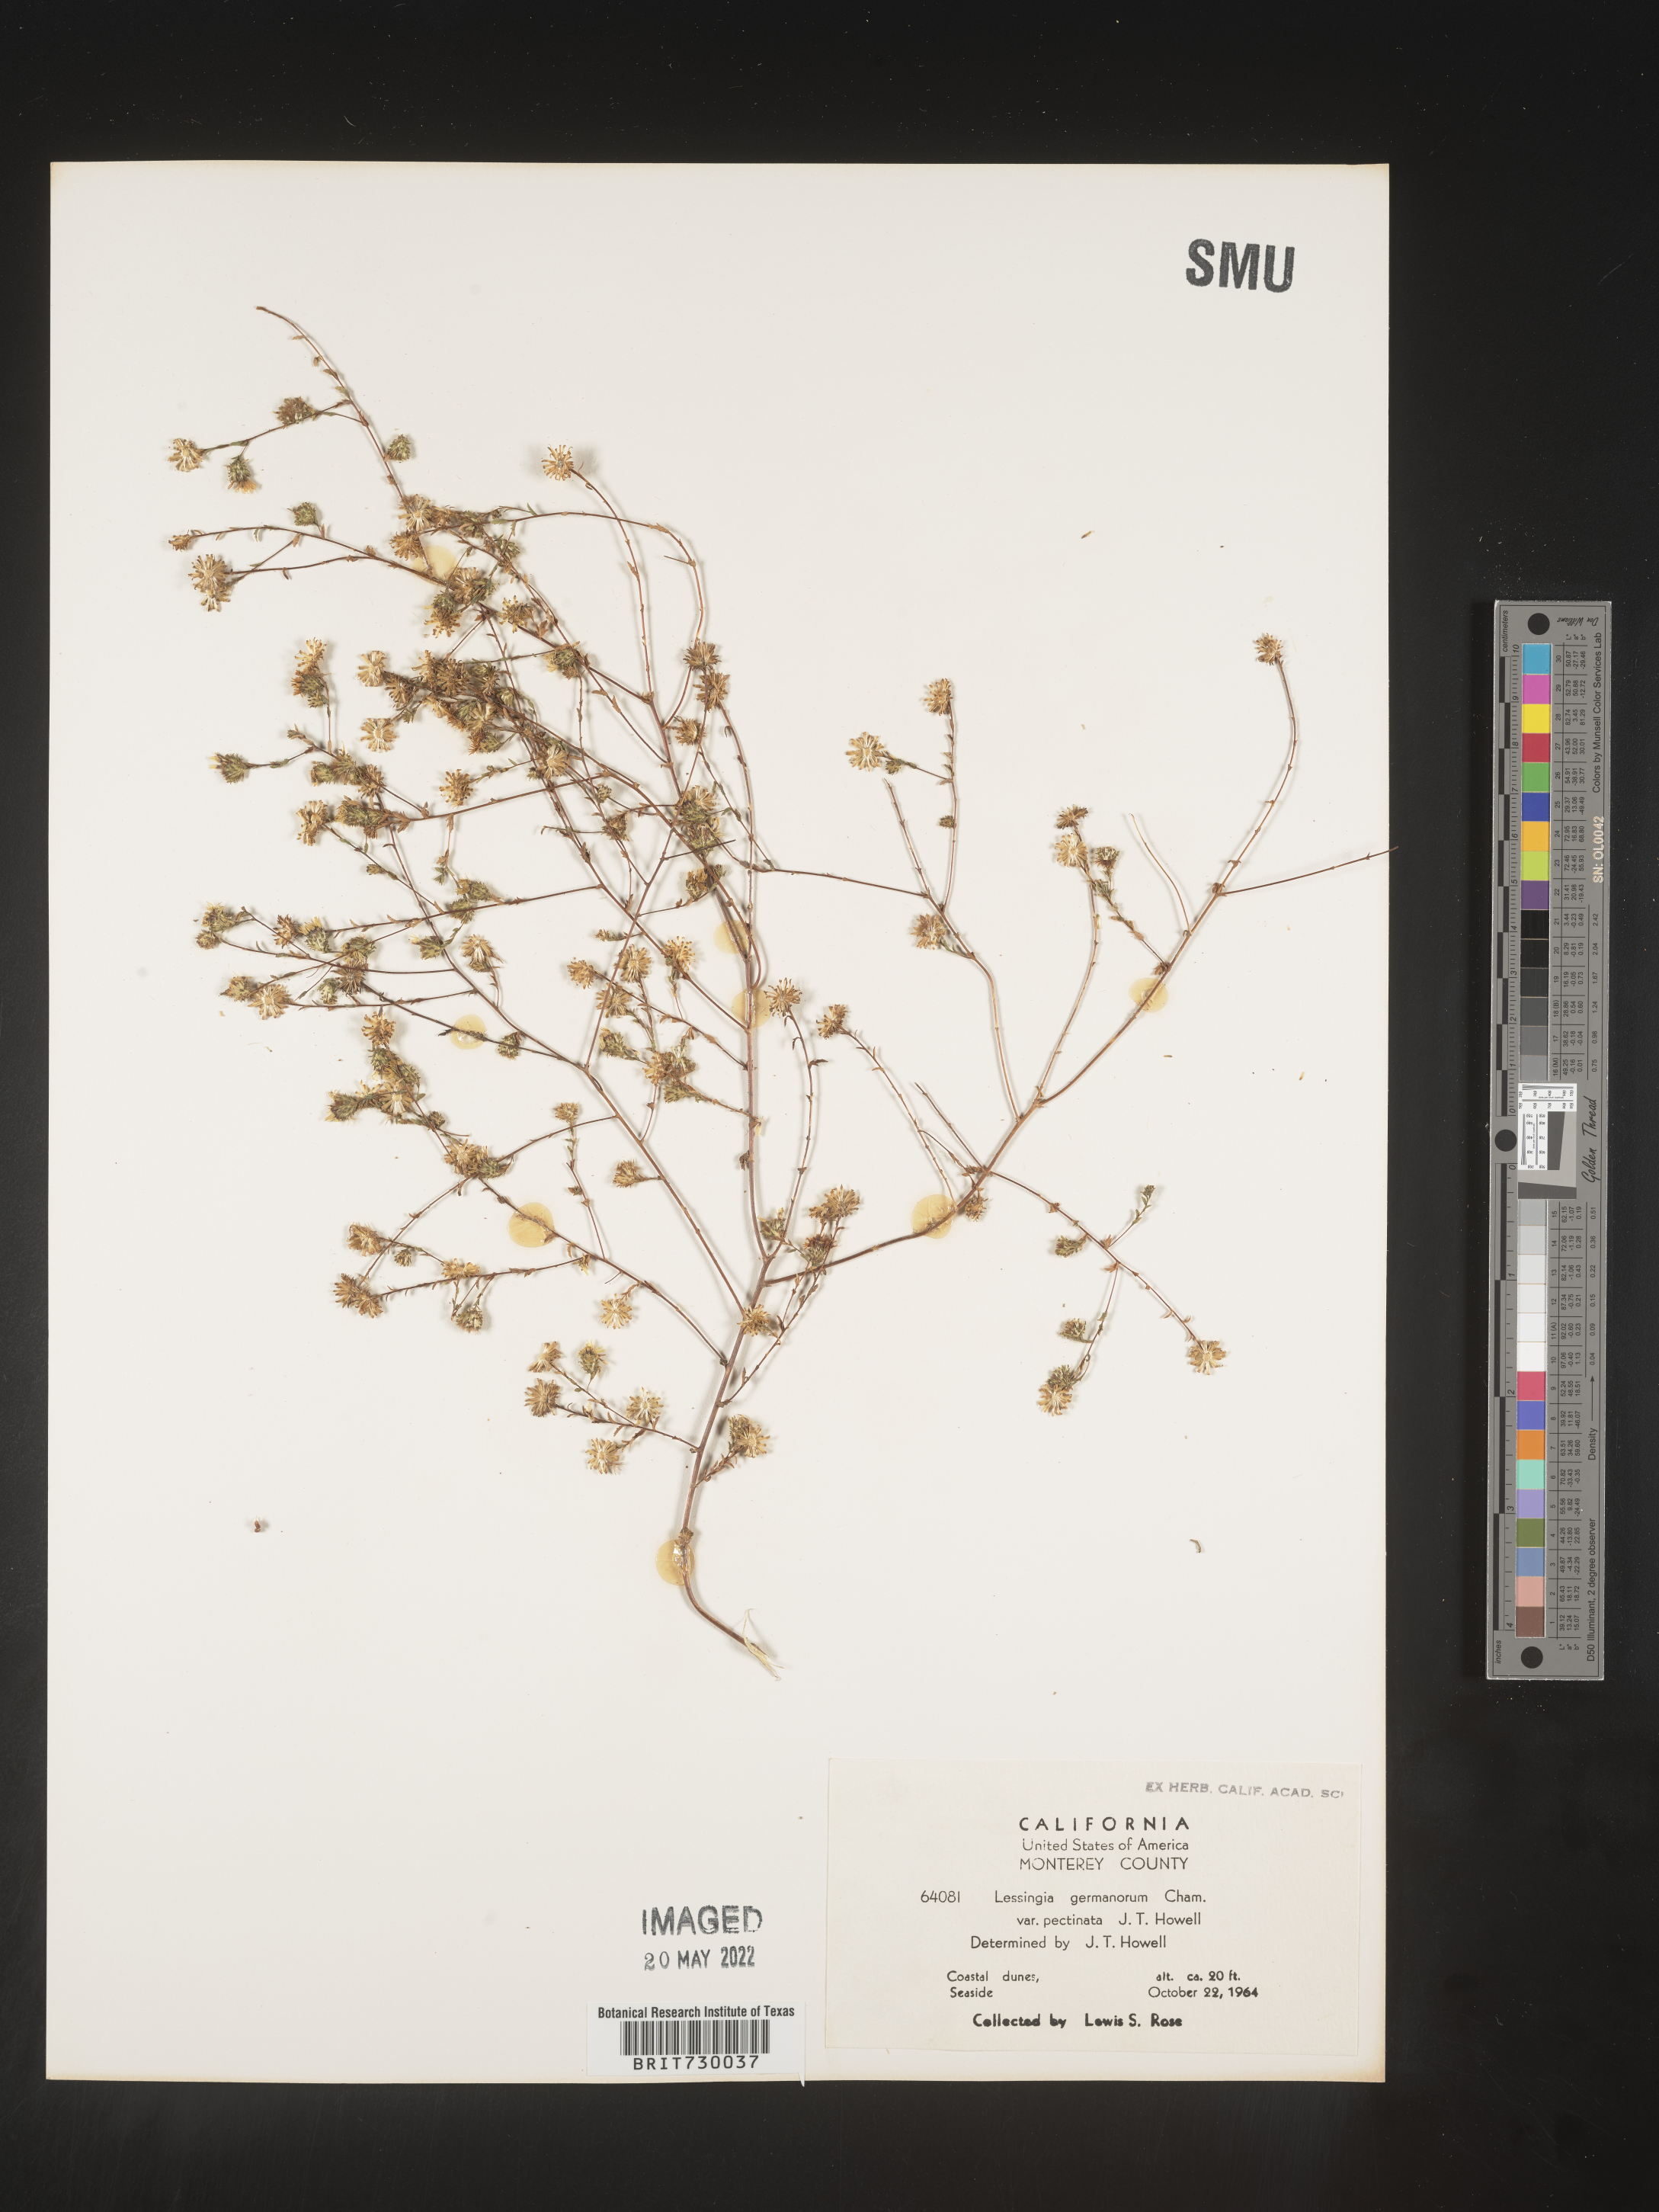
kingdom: Plantae
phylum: Tracheophyta
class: Magnoliopsida
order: Asterales
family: Asteraceae
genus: Lessingia
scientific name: Lessingia
